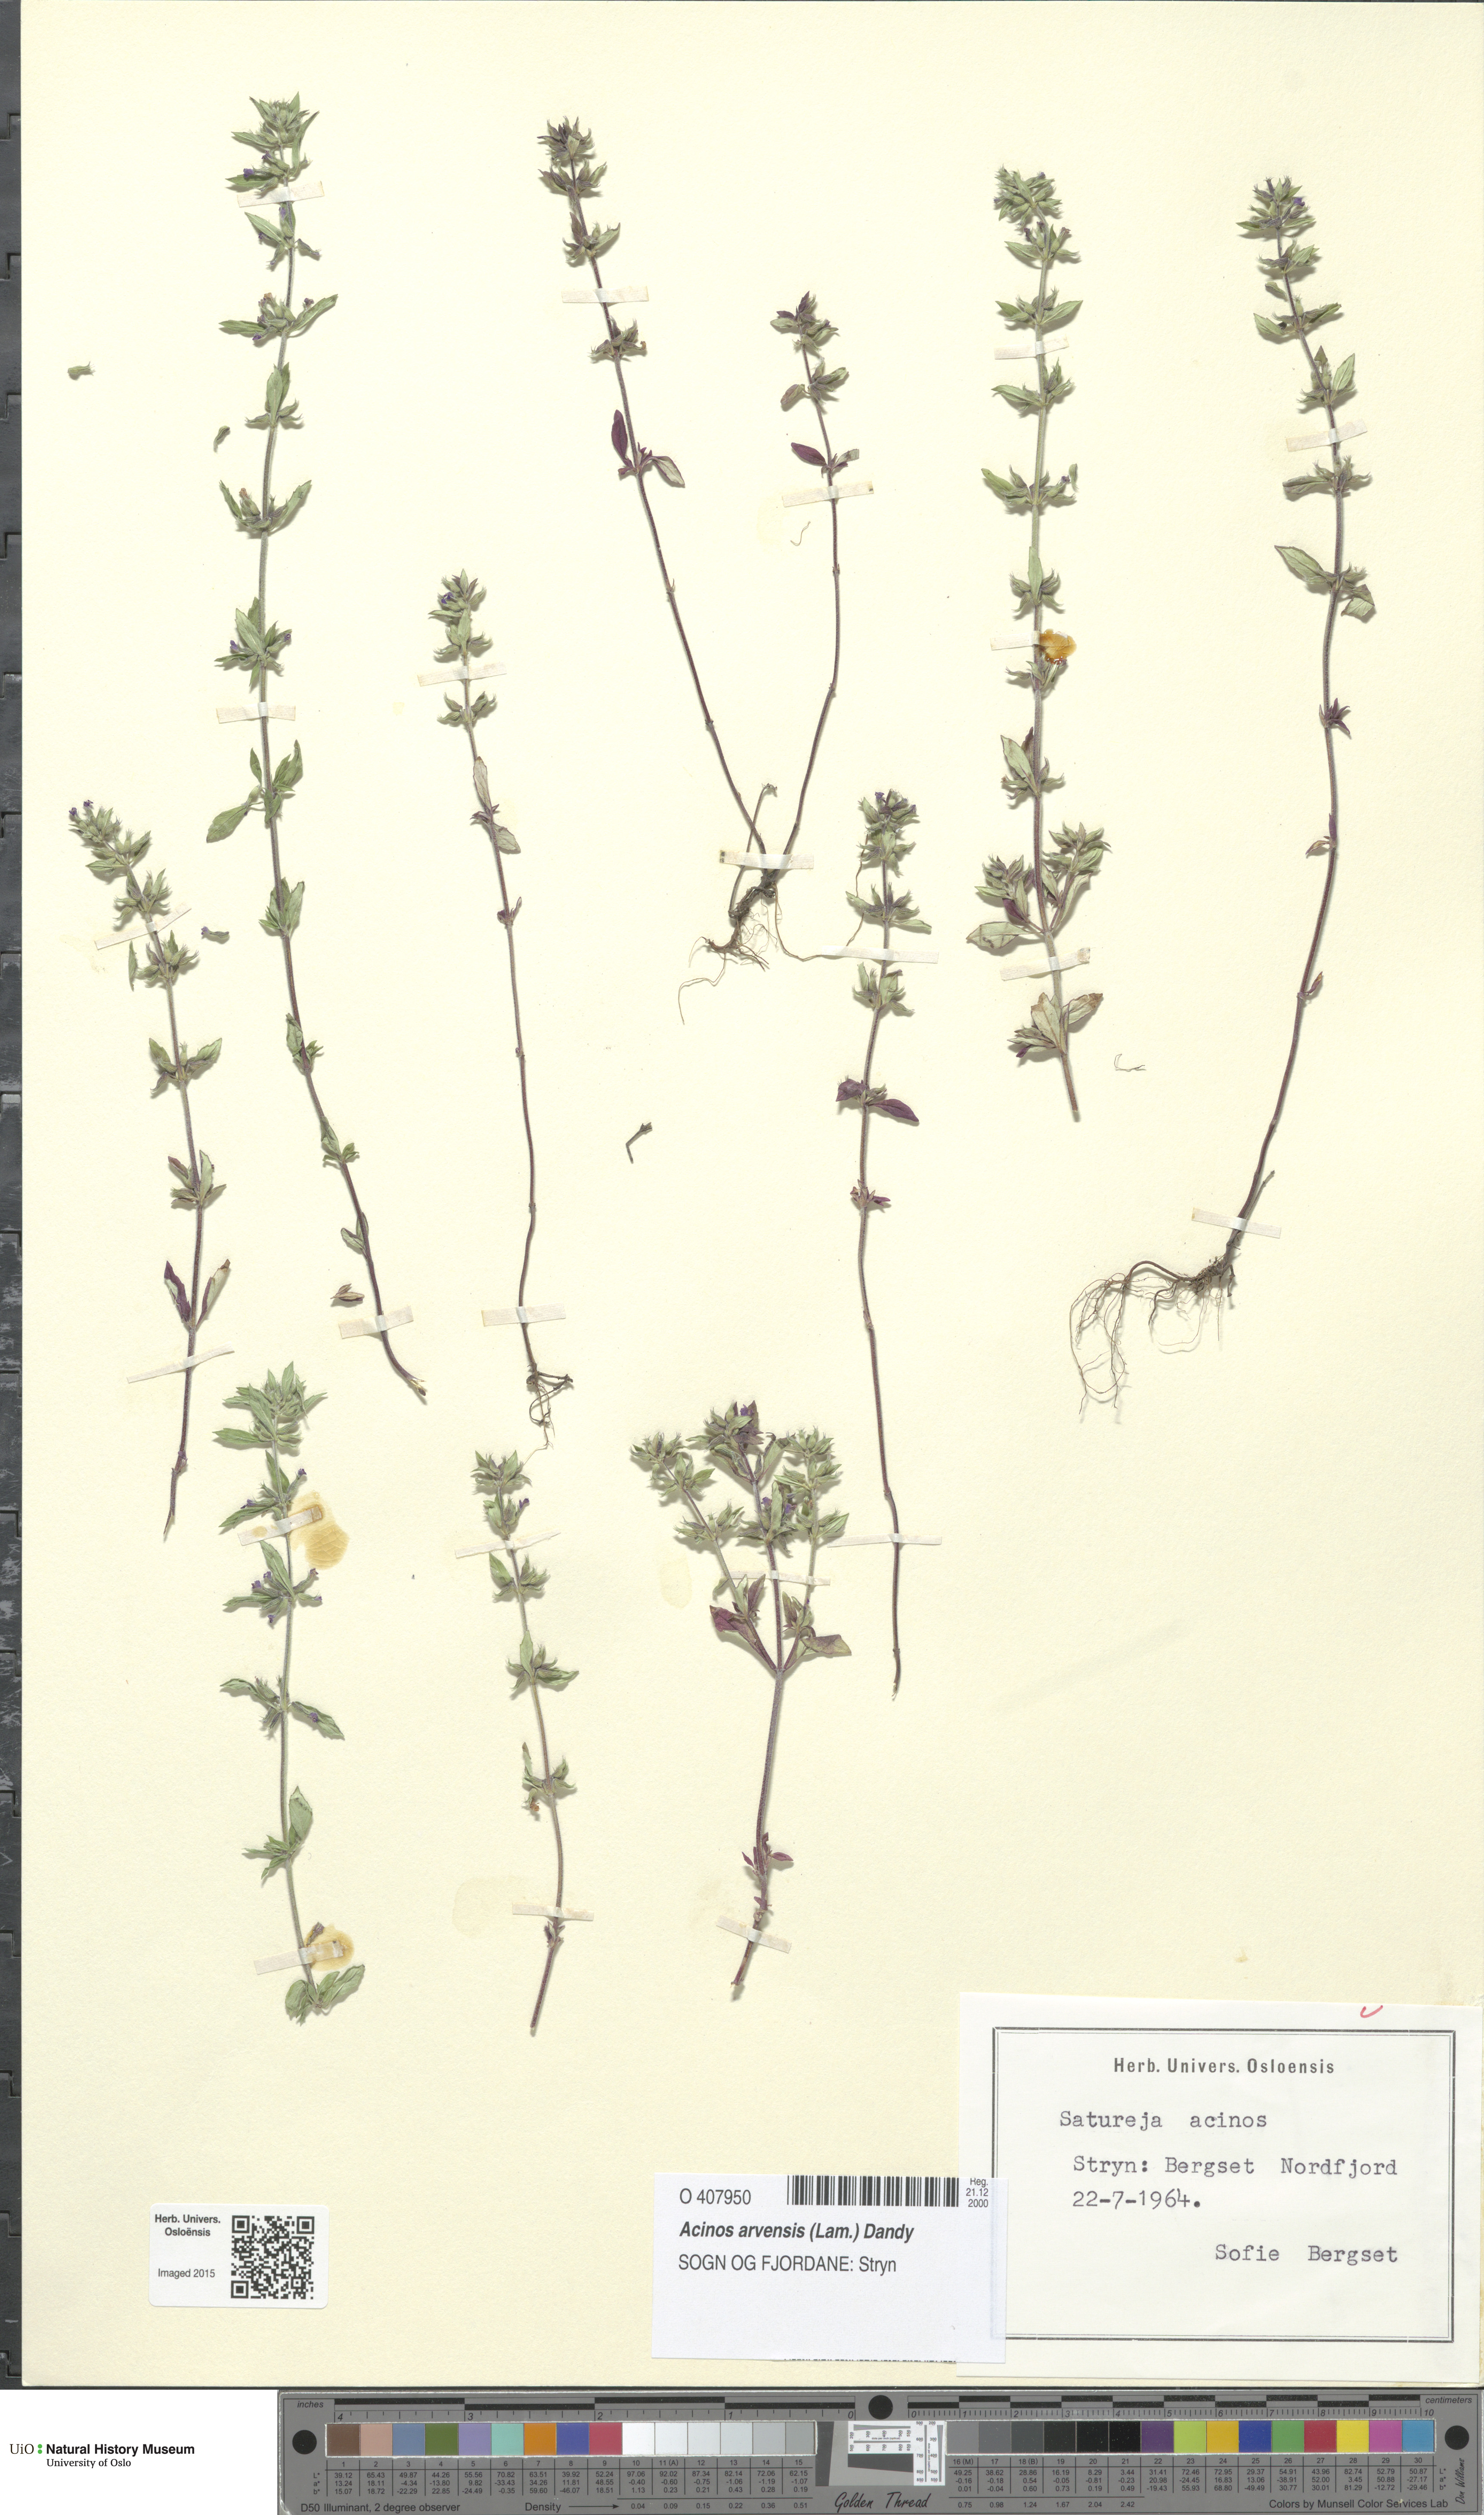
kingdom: Plantae
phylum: Tracheophyta
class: Magnoliopsida
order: Lamiales
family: Lamiaceae
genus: Clinopodium
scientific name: Clinopodium acinos
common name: Basil thyme
